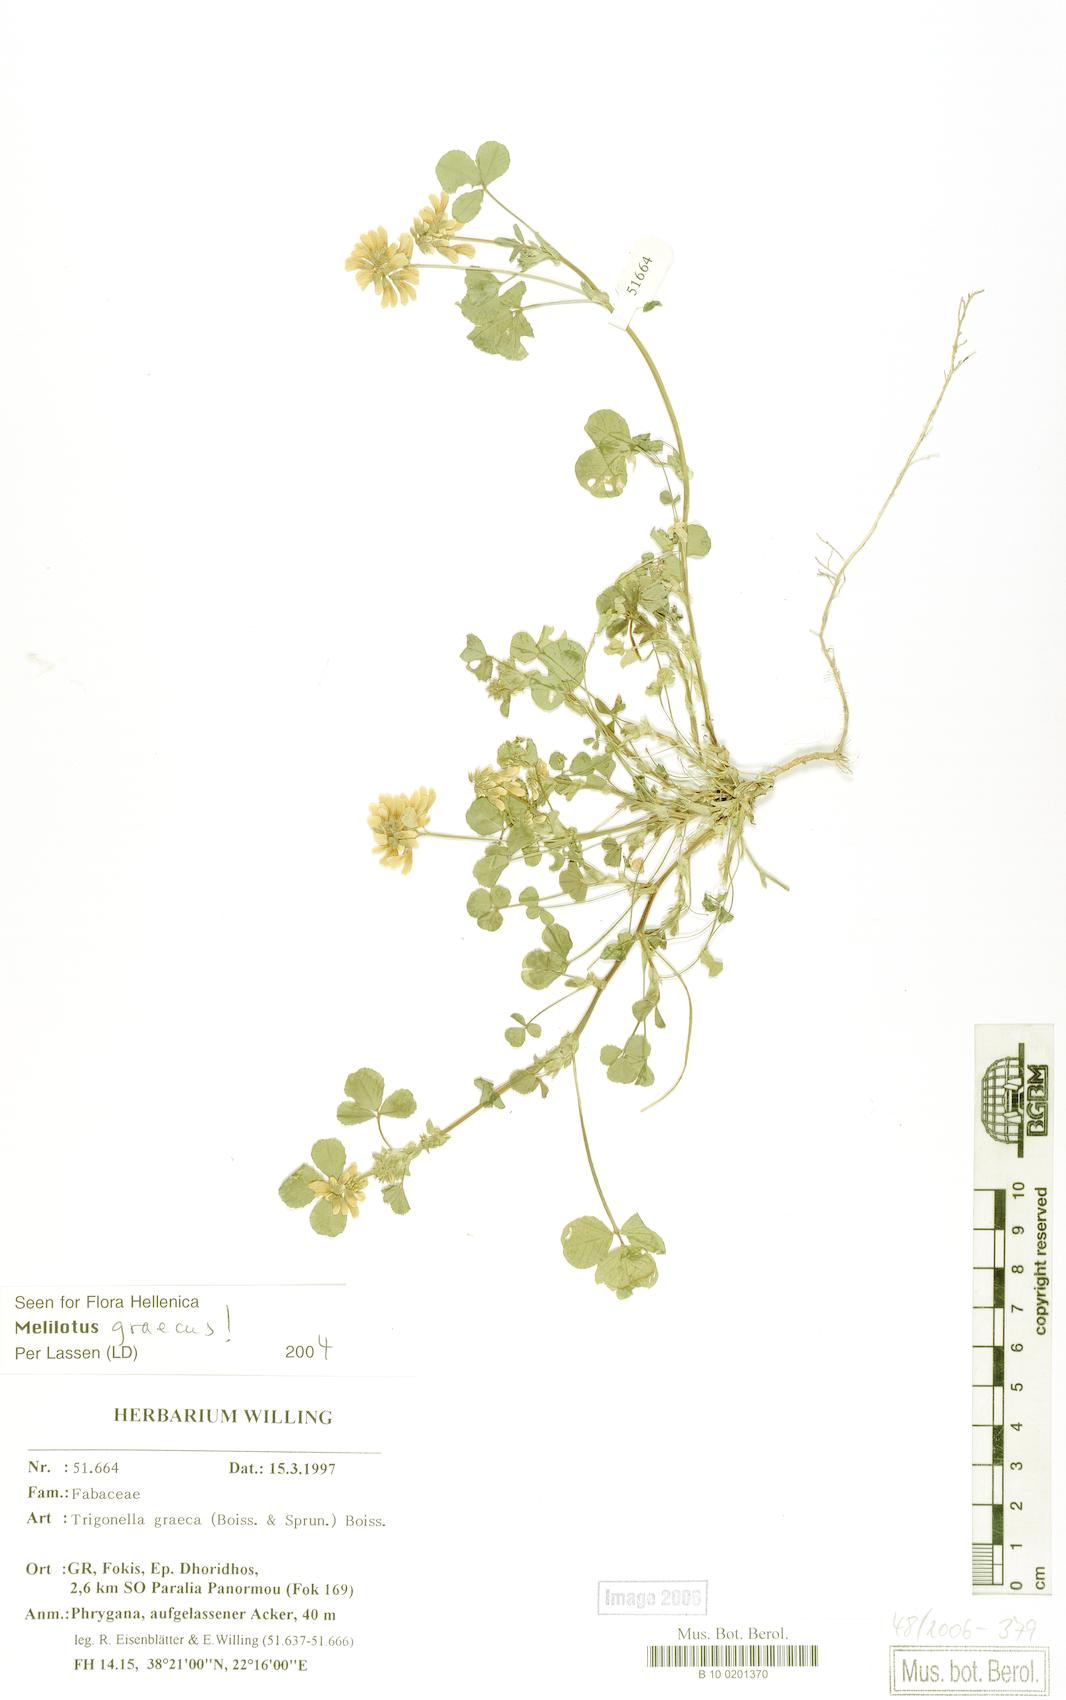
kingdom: Plantae
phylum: Tracheophyta
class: Magnoliopsida
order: Fabales
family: Fabaceae
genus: Trigonella
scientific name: Trigonella graeca
